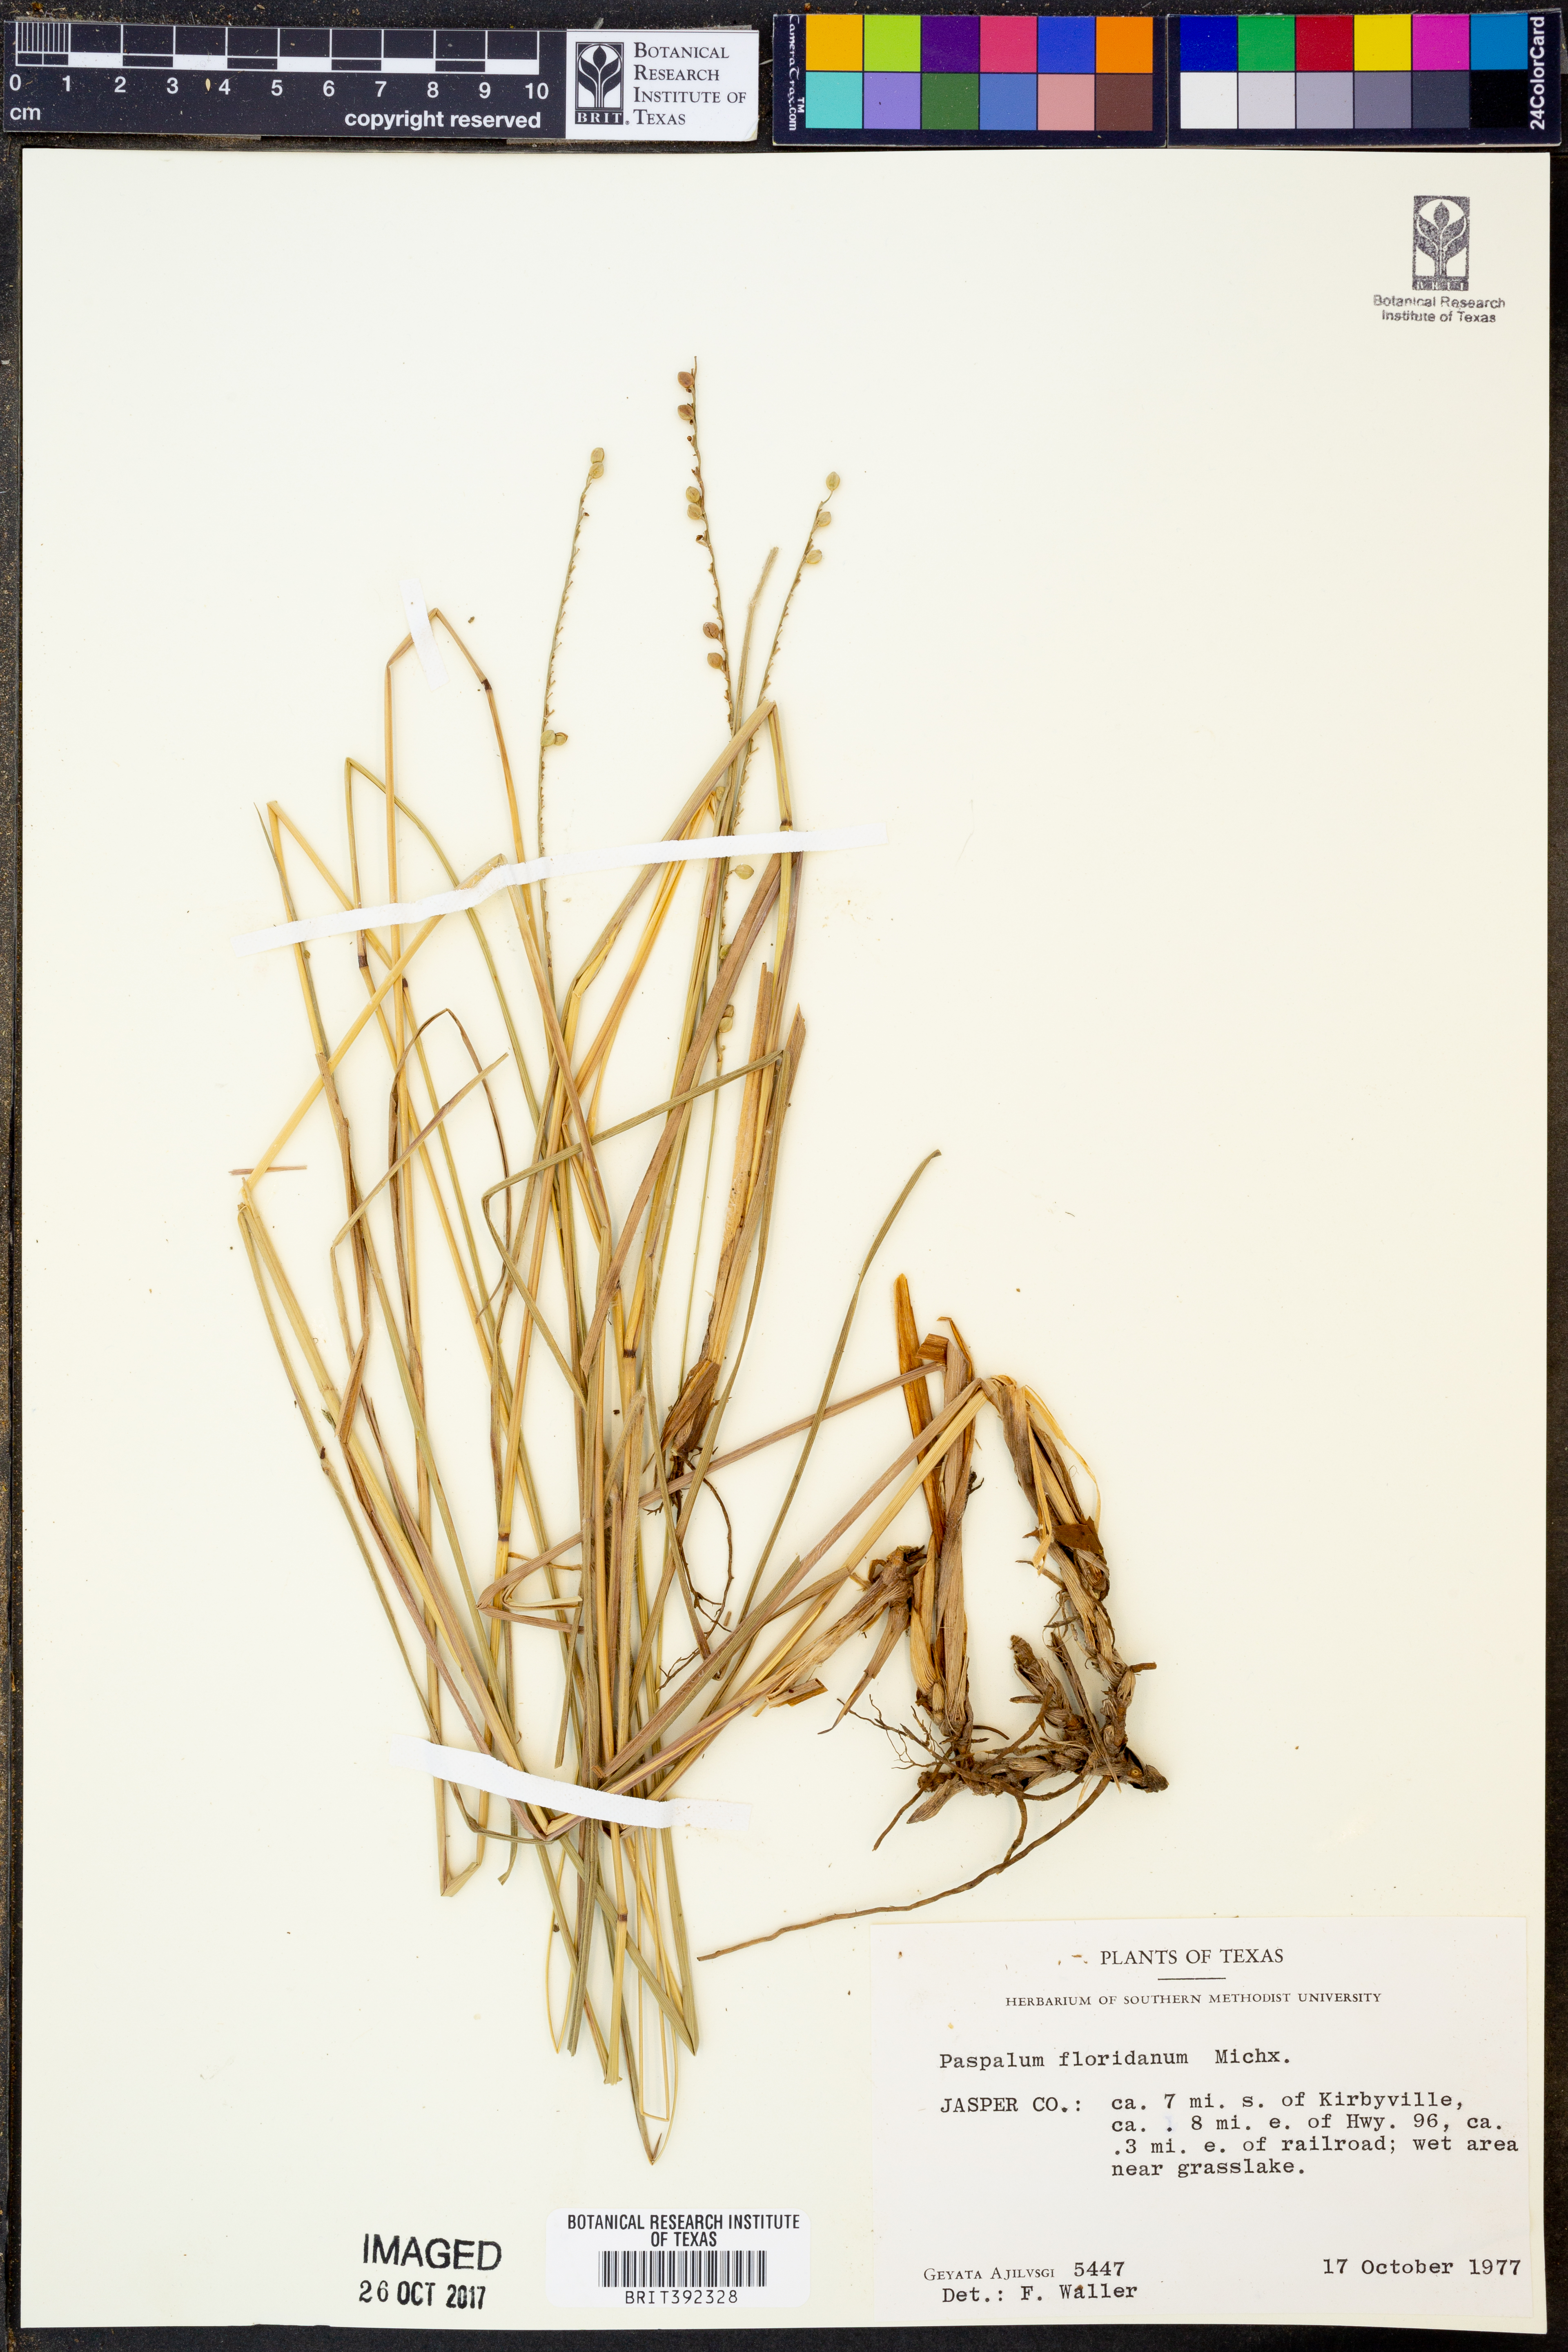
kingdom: Plantae
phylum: Tracheophyta
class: Liliopsida
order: Poales
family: Poaceae
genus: Paspalum
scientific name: Paspalum floridanum
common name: Florida paspalum
